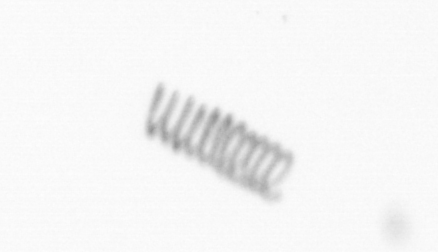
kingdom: Chromista
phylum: Ochrophyta
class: Bacillariophyceae
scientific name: Bacillariophyceae
